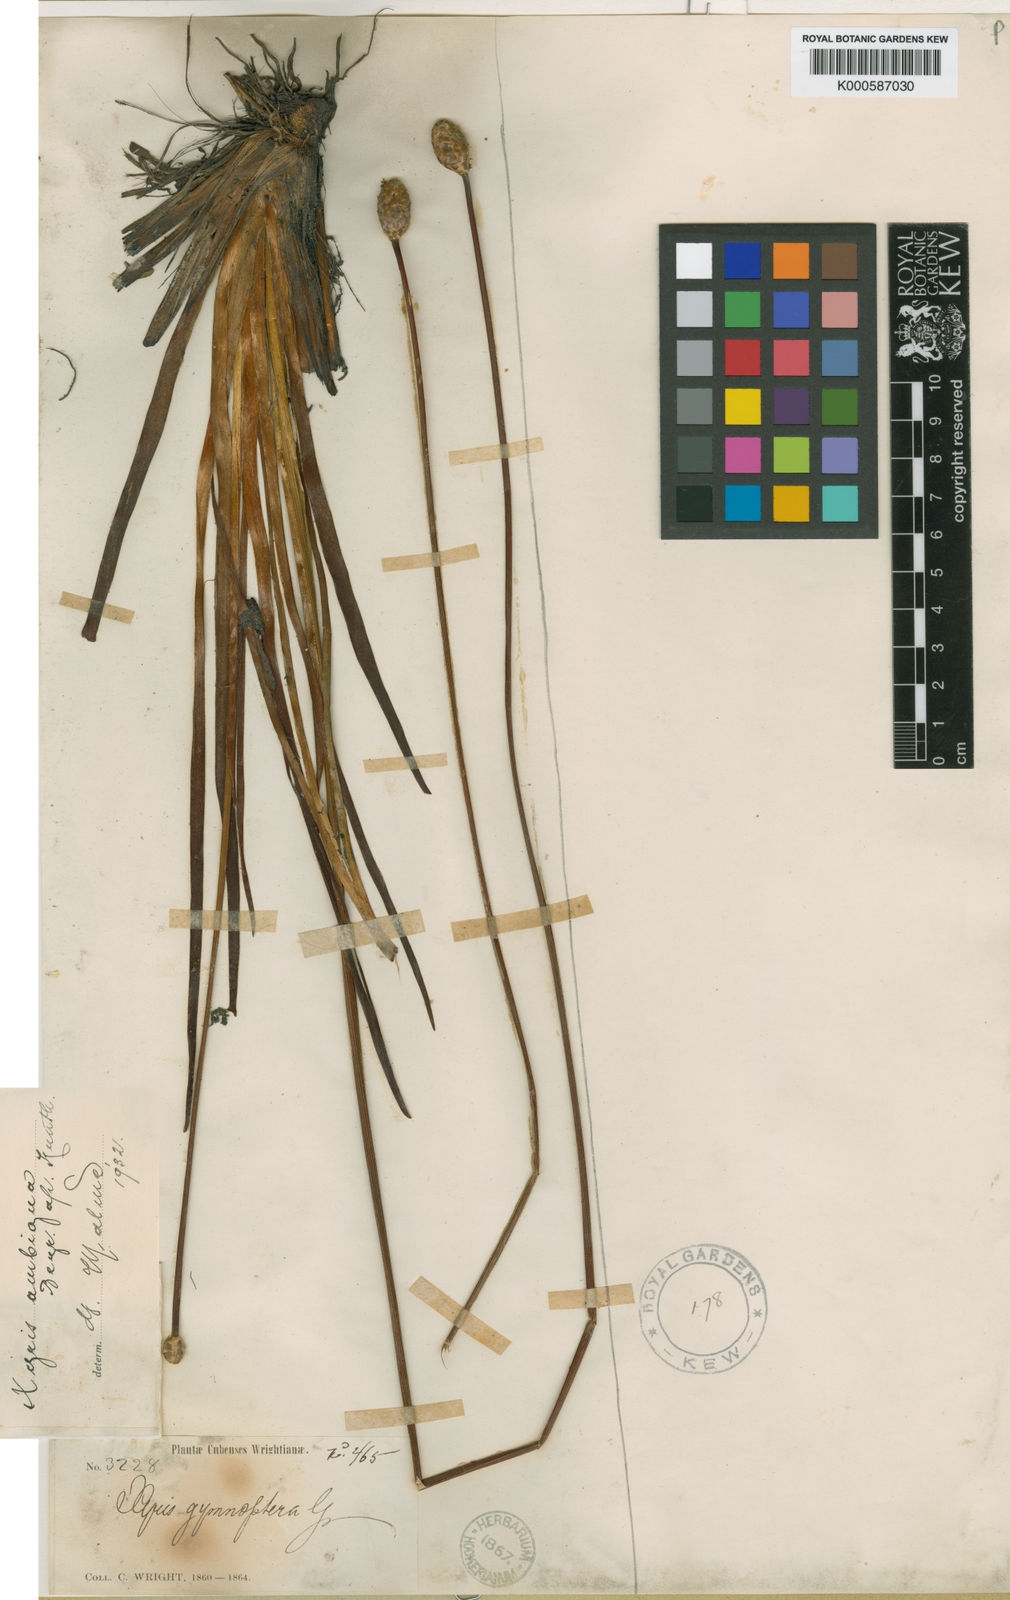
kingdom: Plantae
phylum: Tracheophyta
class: Liliopsida
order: Poales
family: Xyridaceae
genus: Xyris
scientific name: Xyris ambigua
